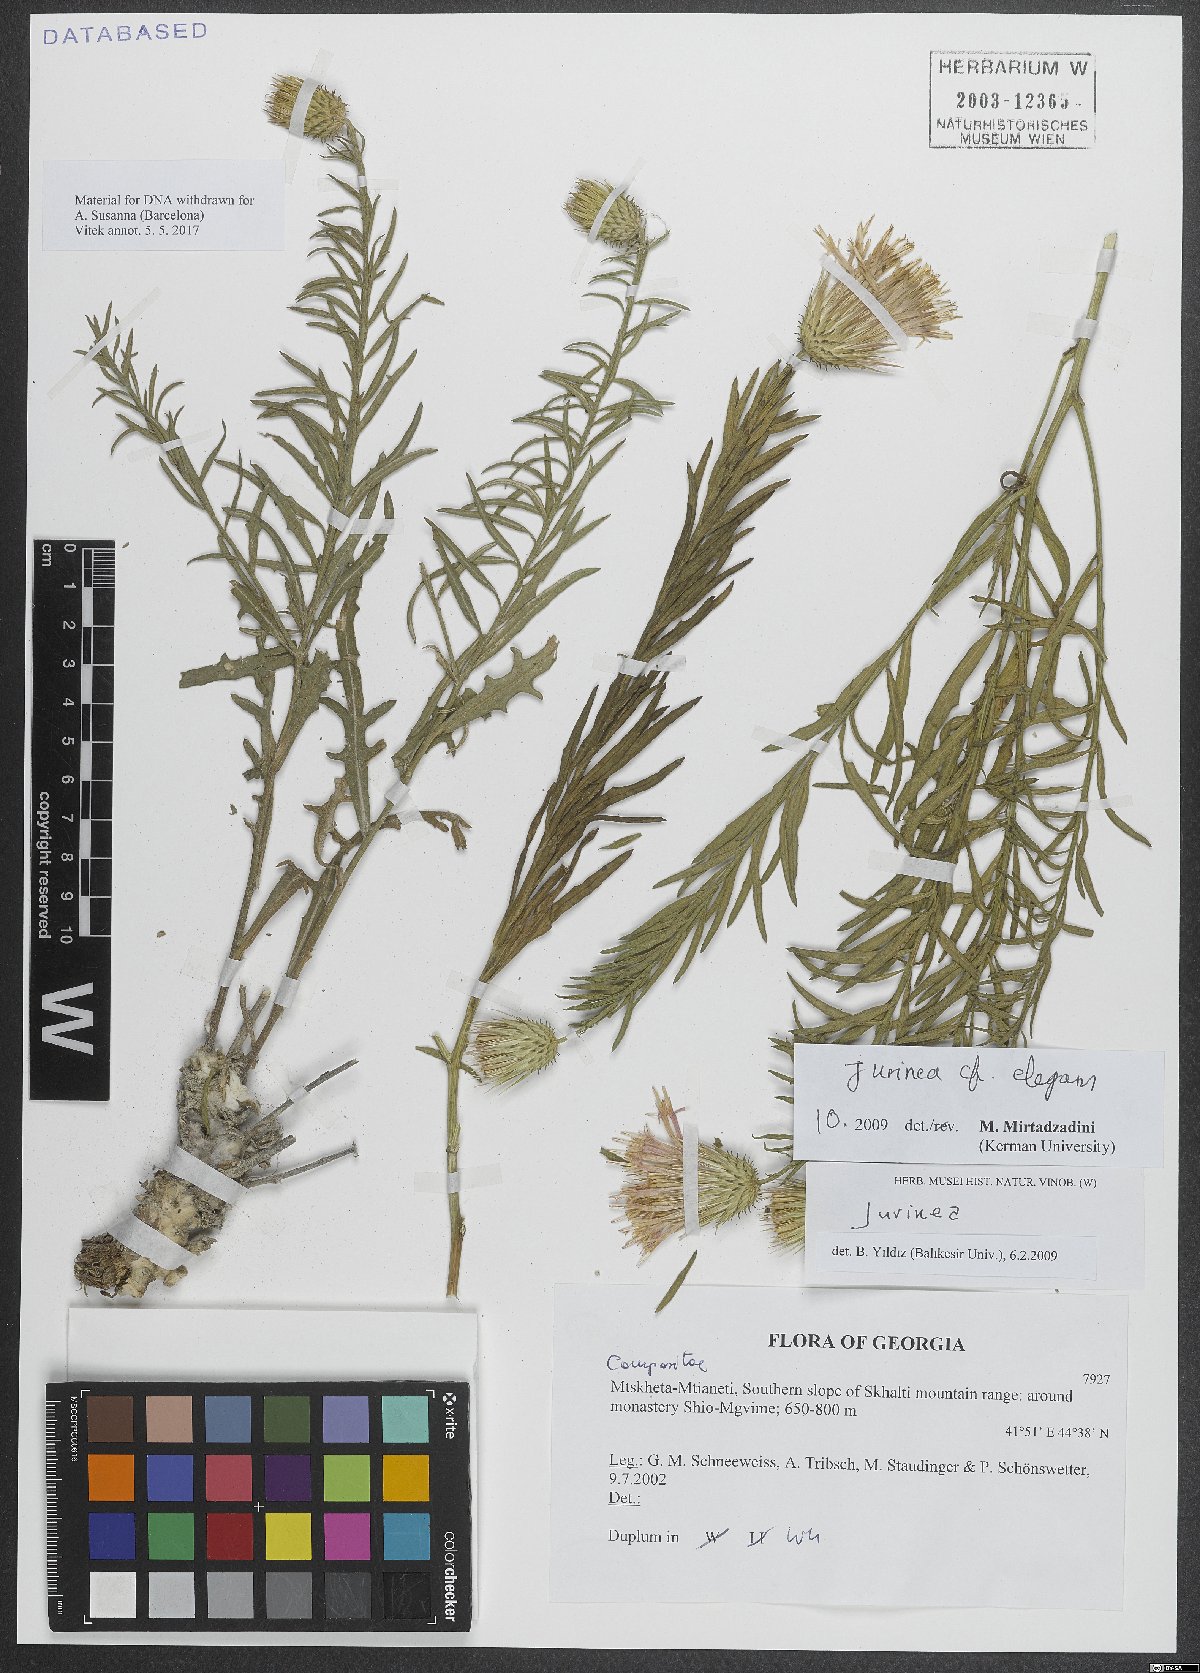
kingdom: Plantae
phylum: Tracheophyta
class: Magnoliopsida
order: Asterales
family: Asteraceae
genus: Jurinea
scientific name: Jurinea elegans
